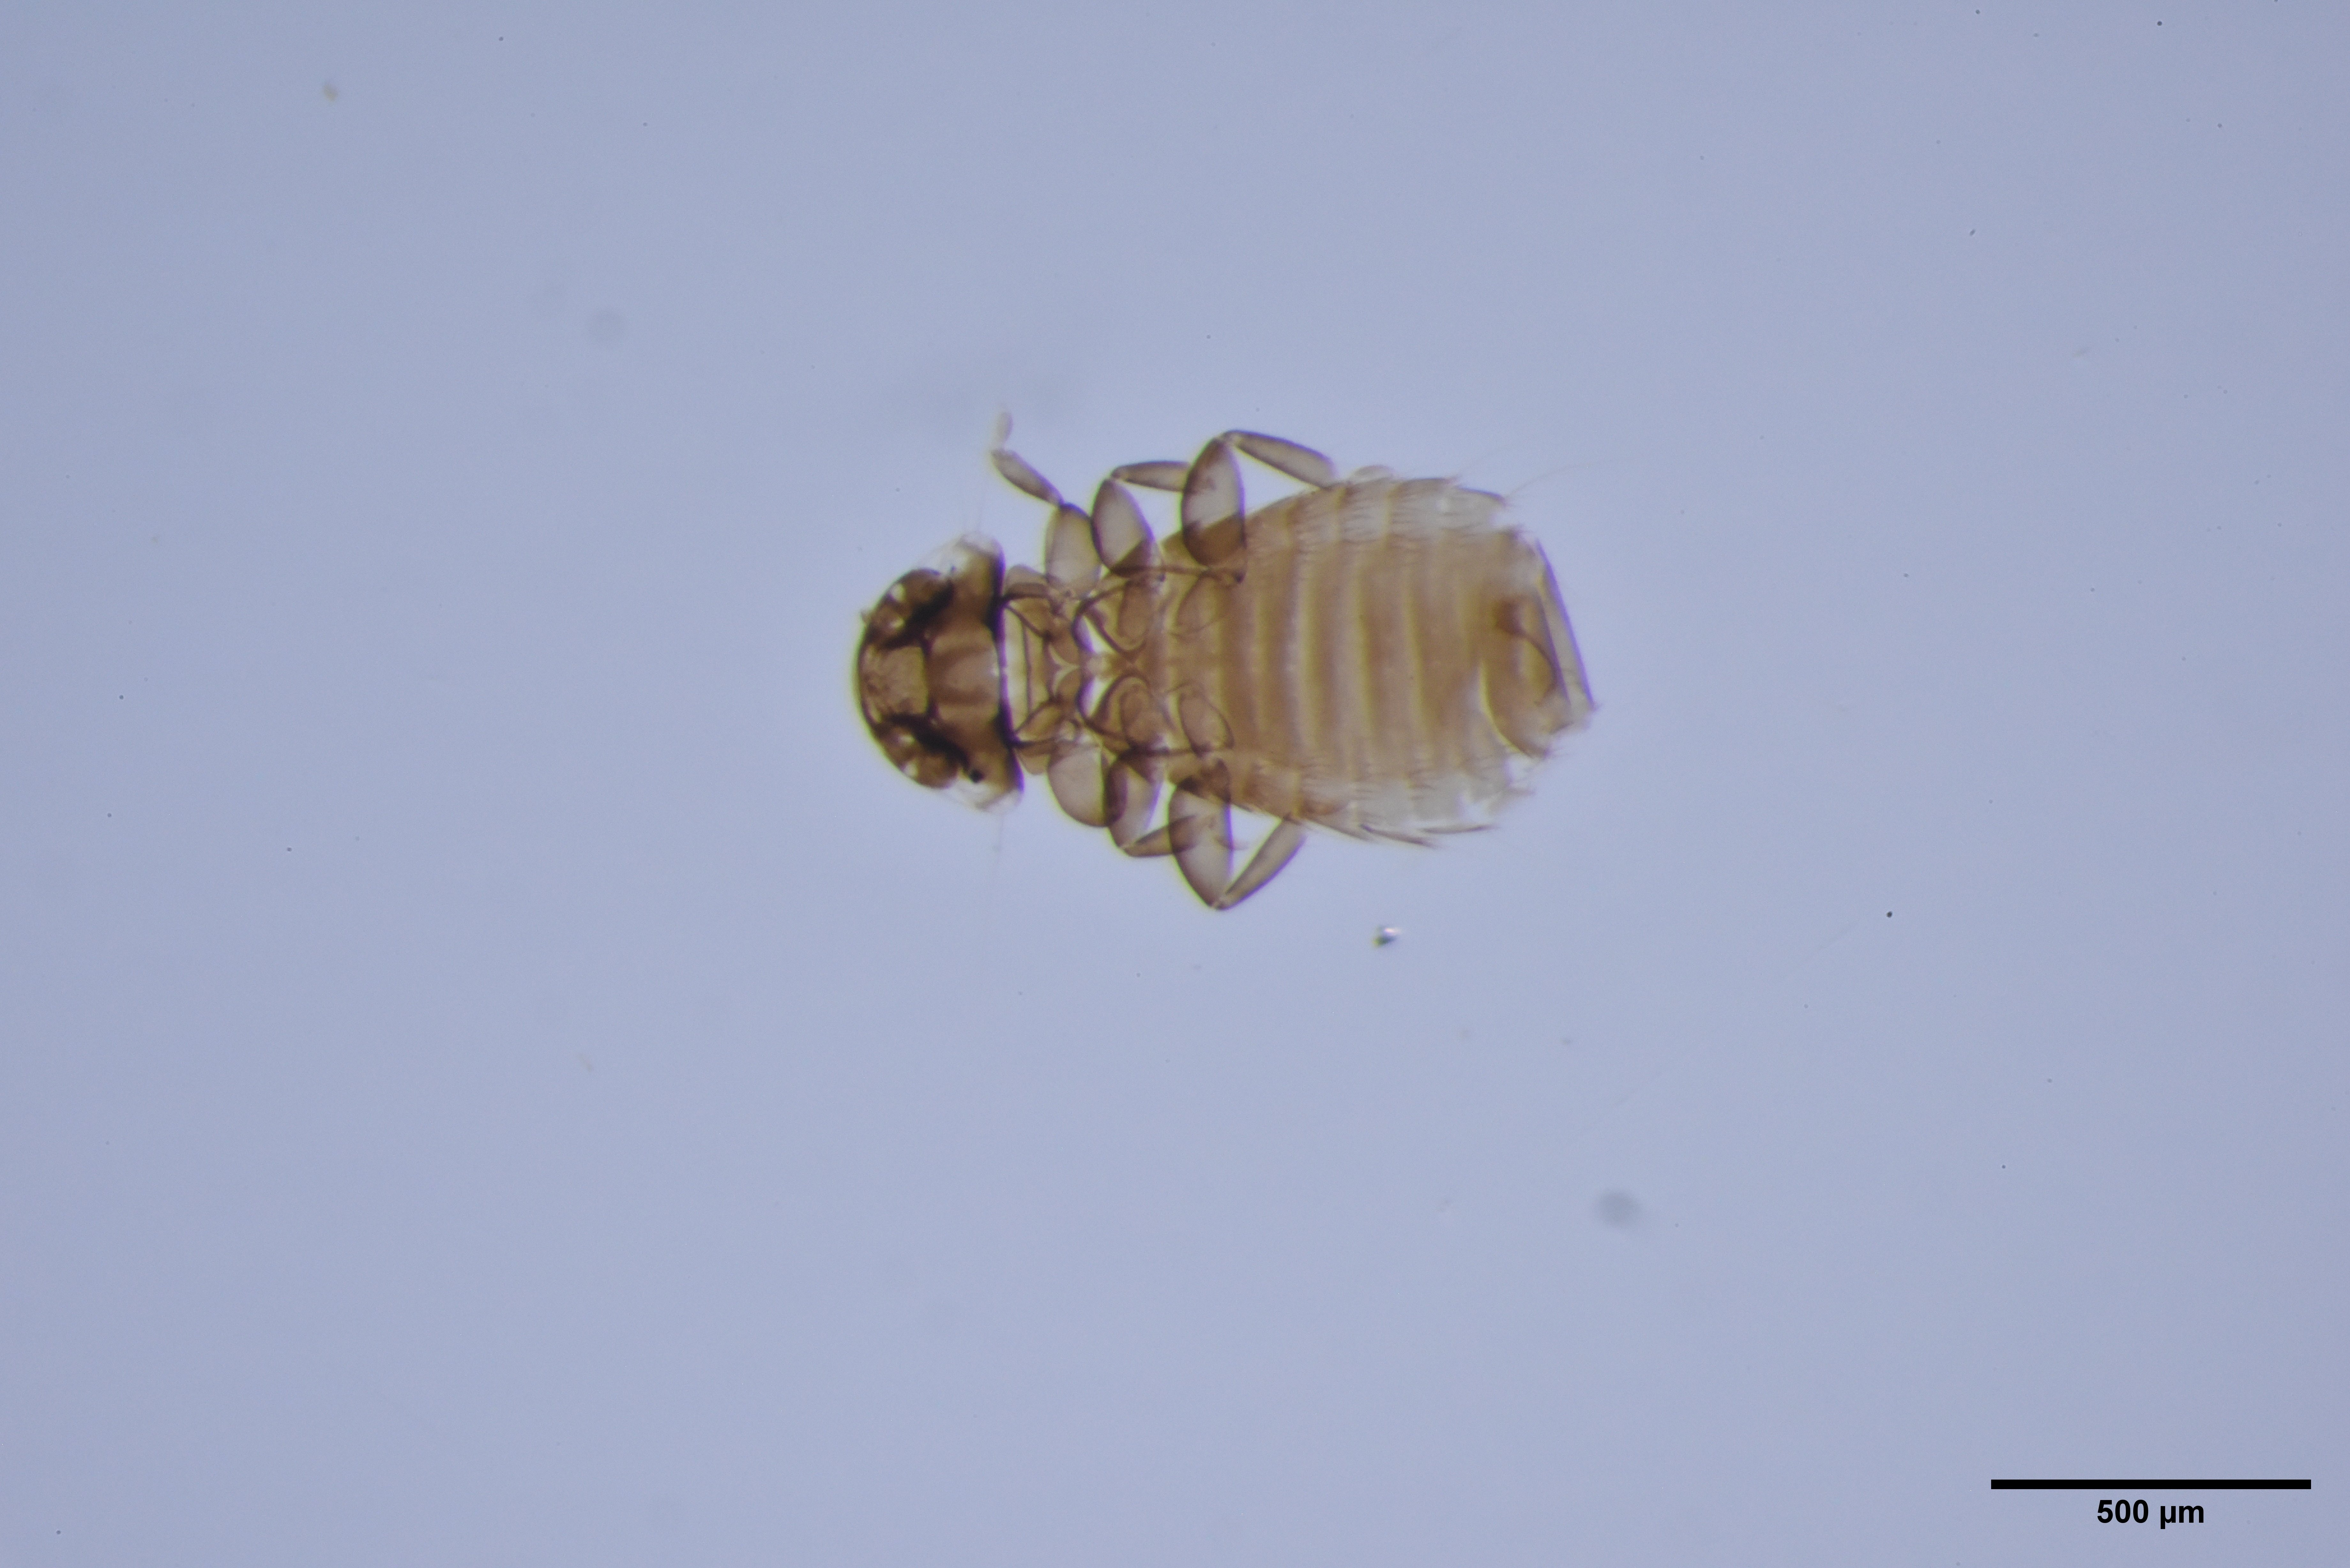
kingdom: Animalia
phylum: Arthropoda
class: Insecta
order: Psocodea
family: Menoponidae
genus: Menacanthus
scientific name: Menacanthus agilis
